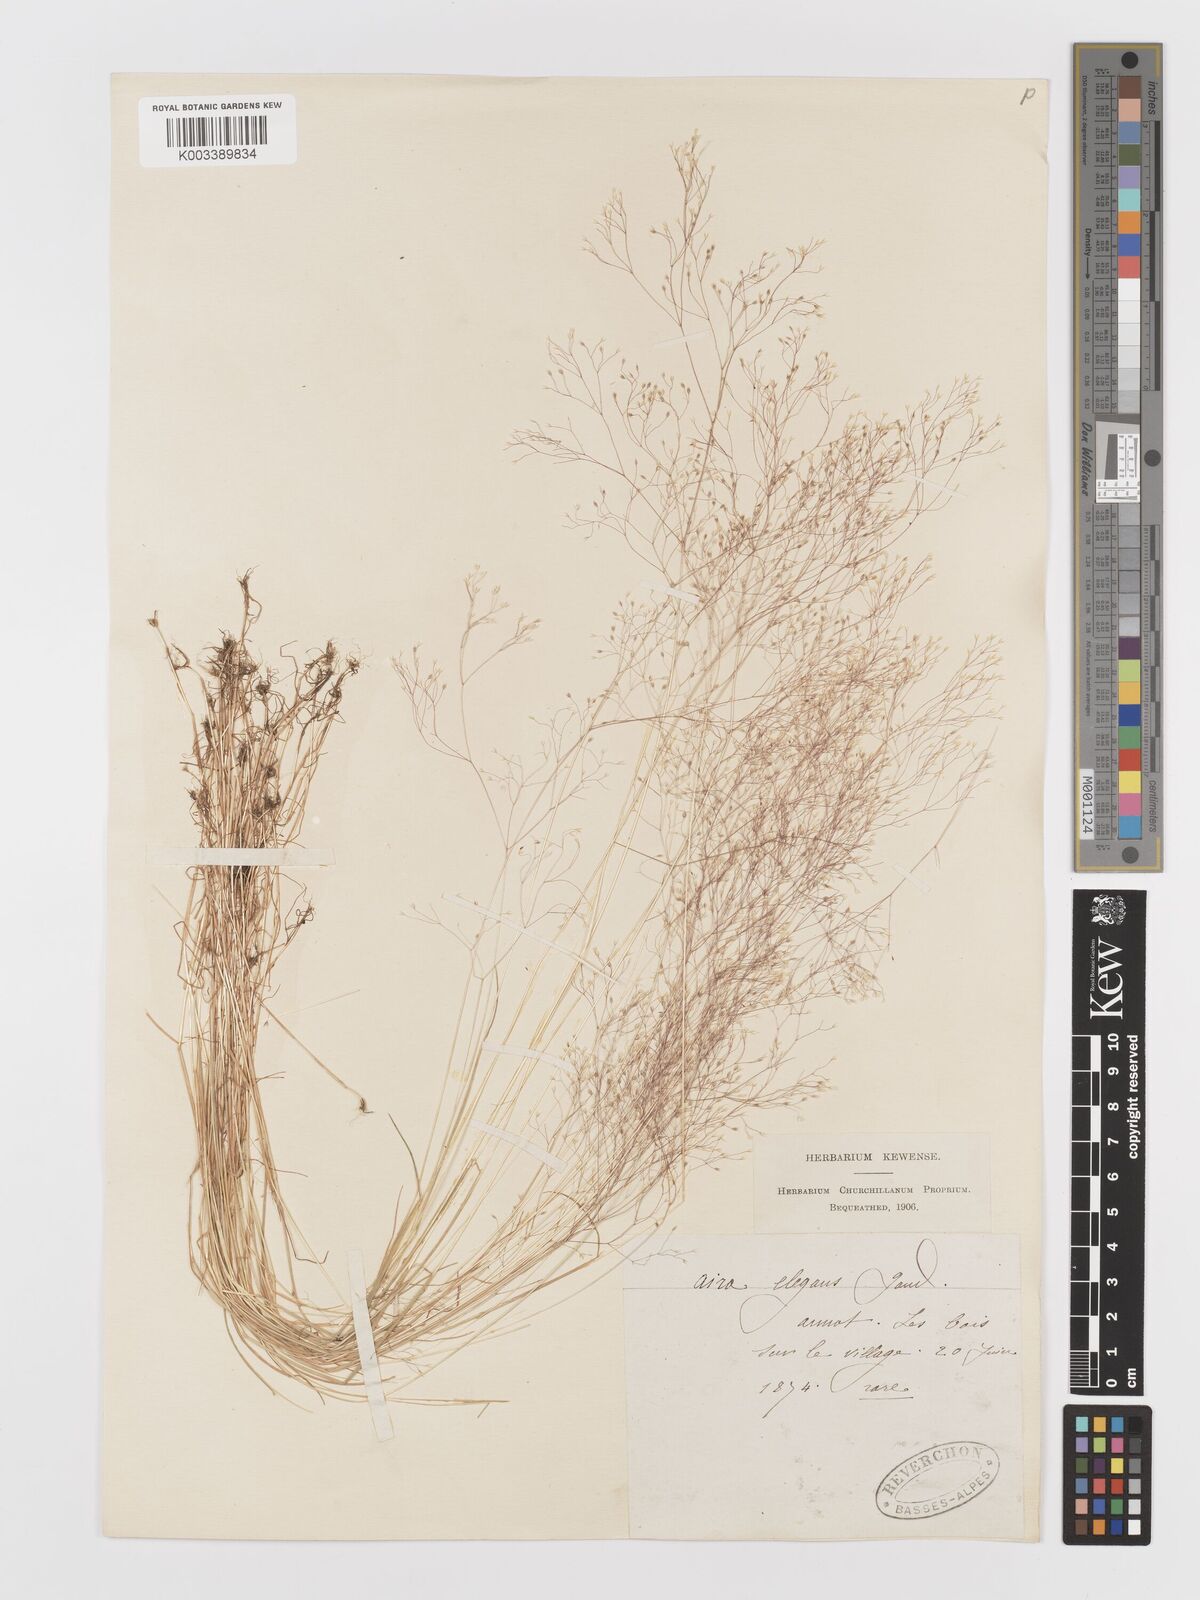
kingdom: Plantae
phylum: Tracheophyta
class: Liliopsida
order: Poales
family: Poaceae
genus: Aira
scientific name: Aira elegans
